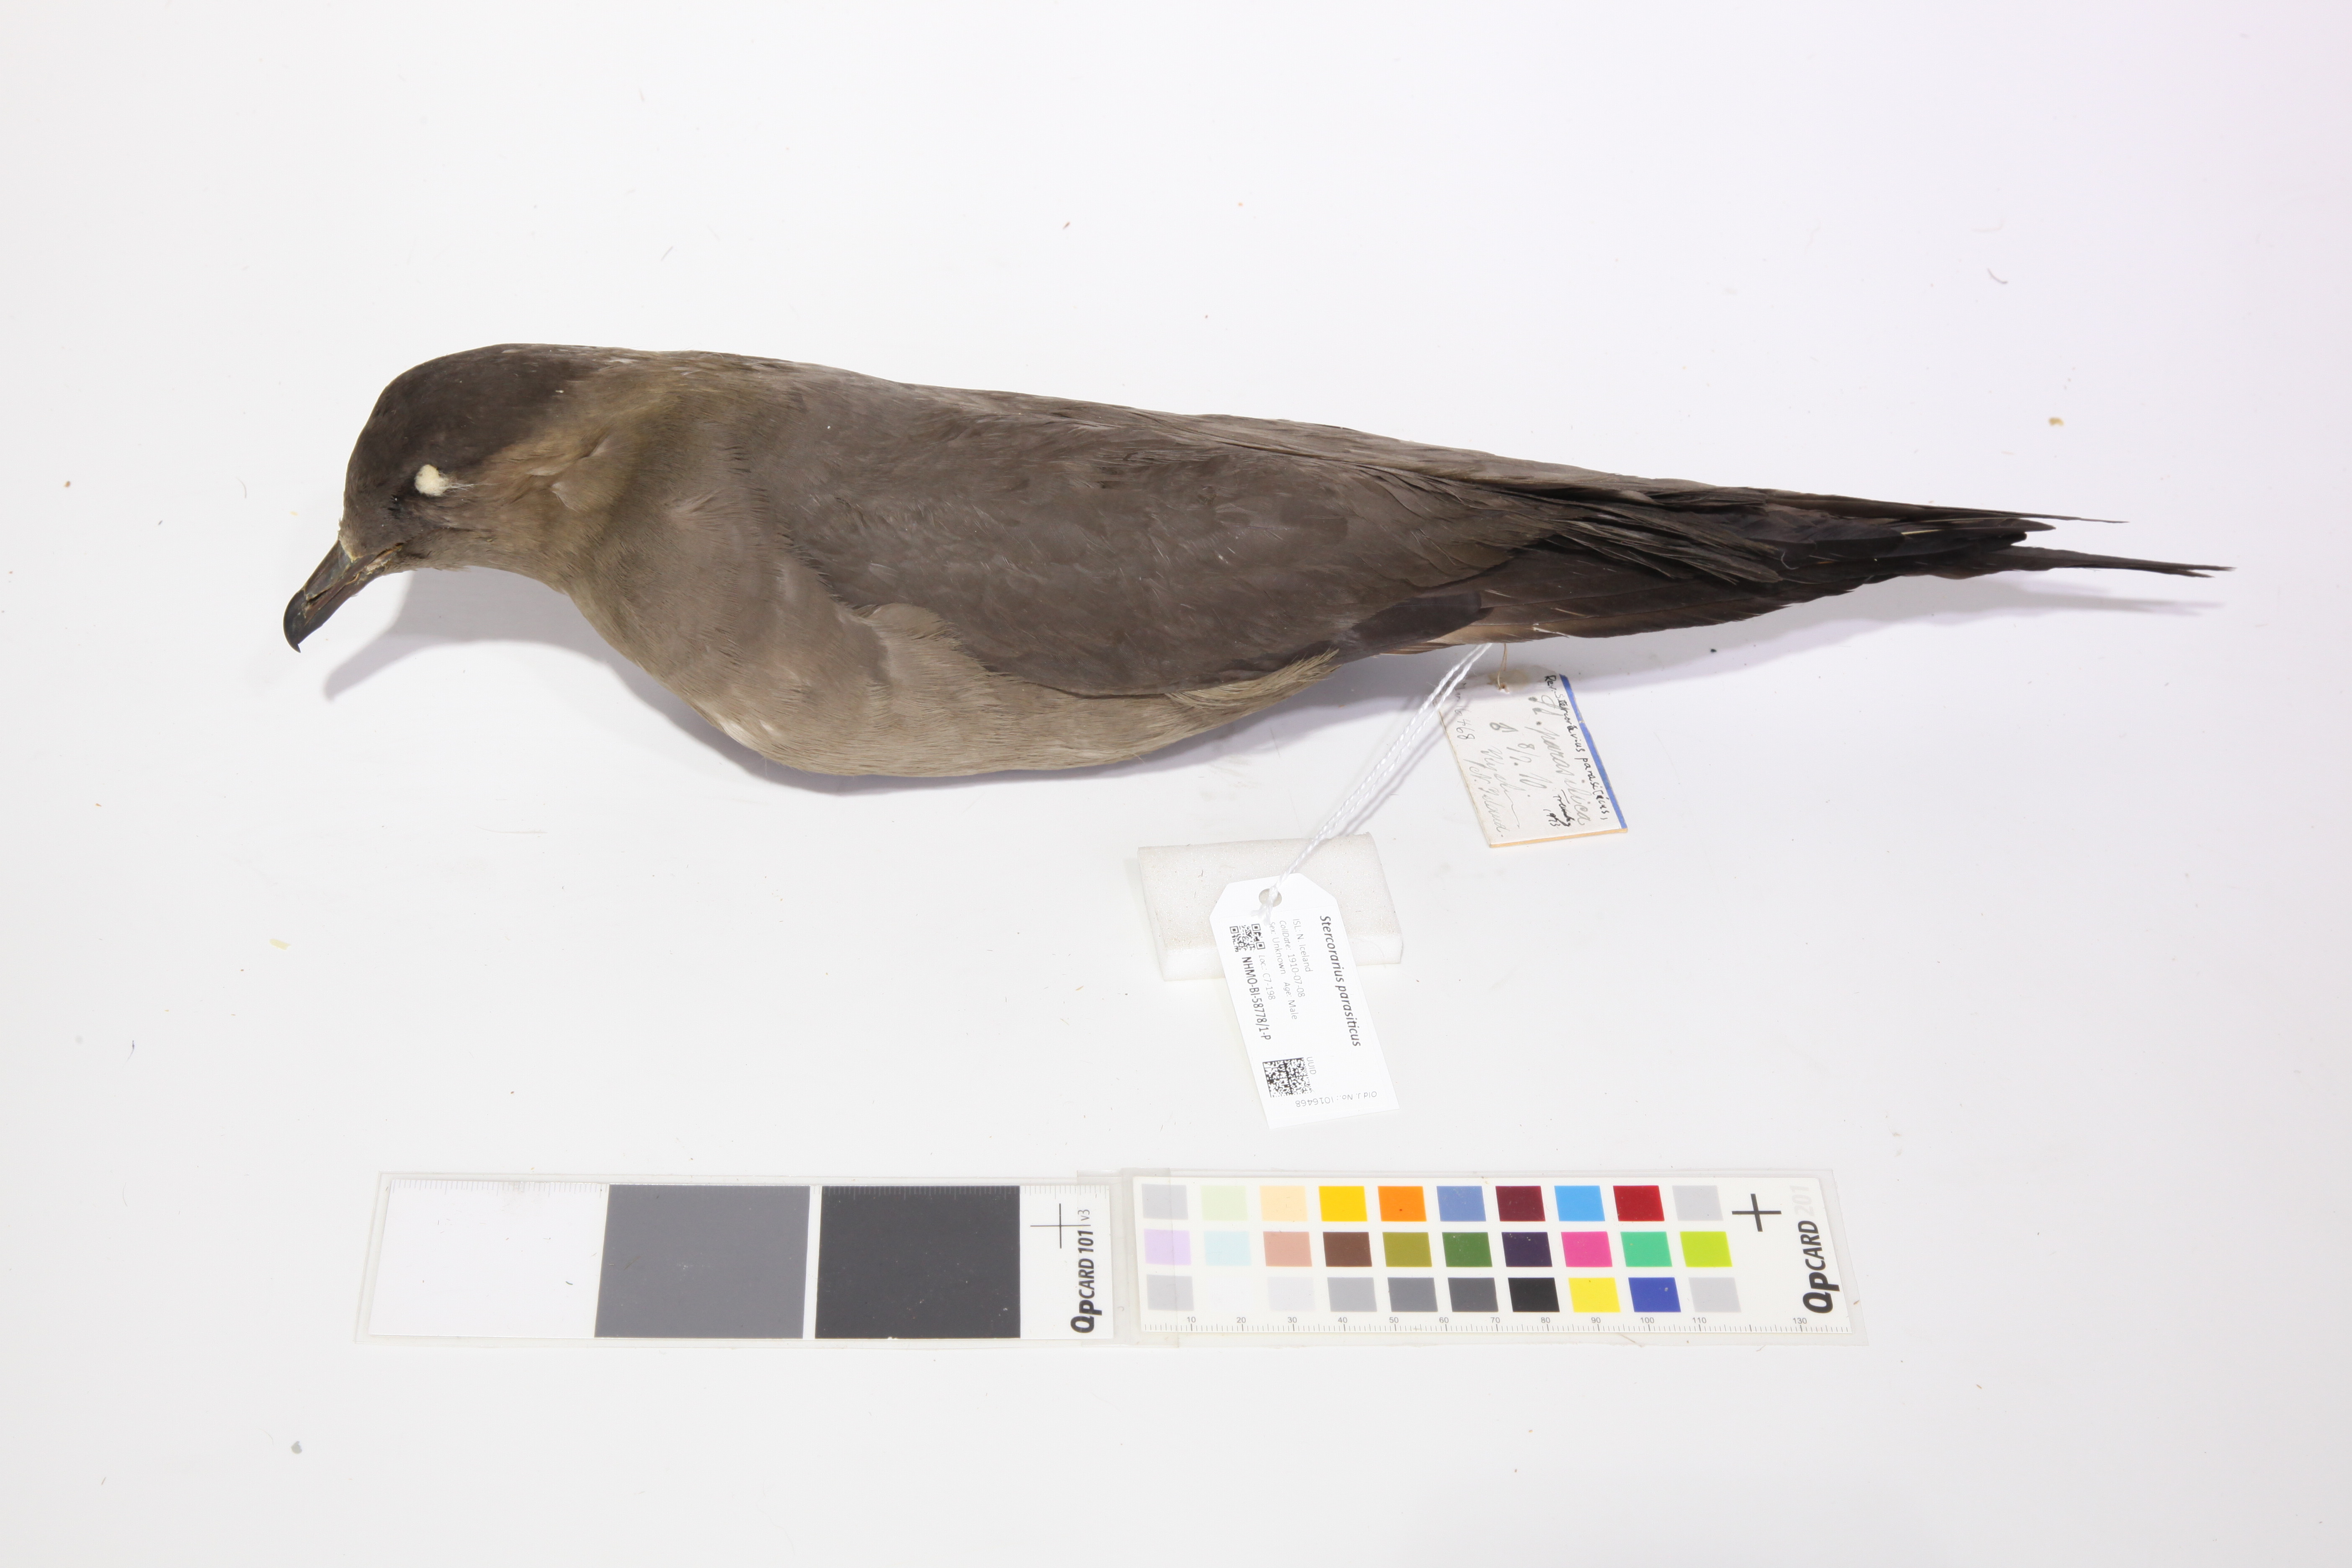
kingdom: Animalia
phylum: Chordata
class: Aves
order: Charadriiformes
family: Stercorariidae
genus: Stercorarius
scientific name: Stercorarius parasiticus
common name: Parasitic jaeger
